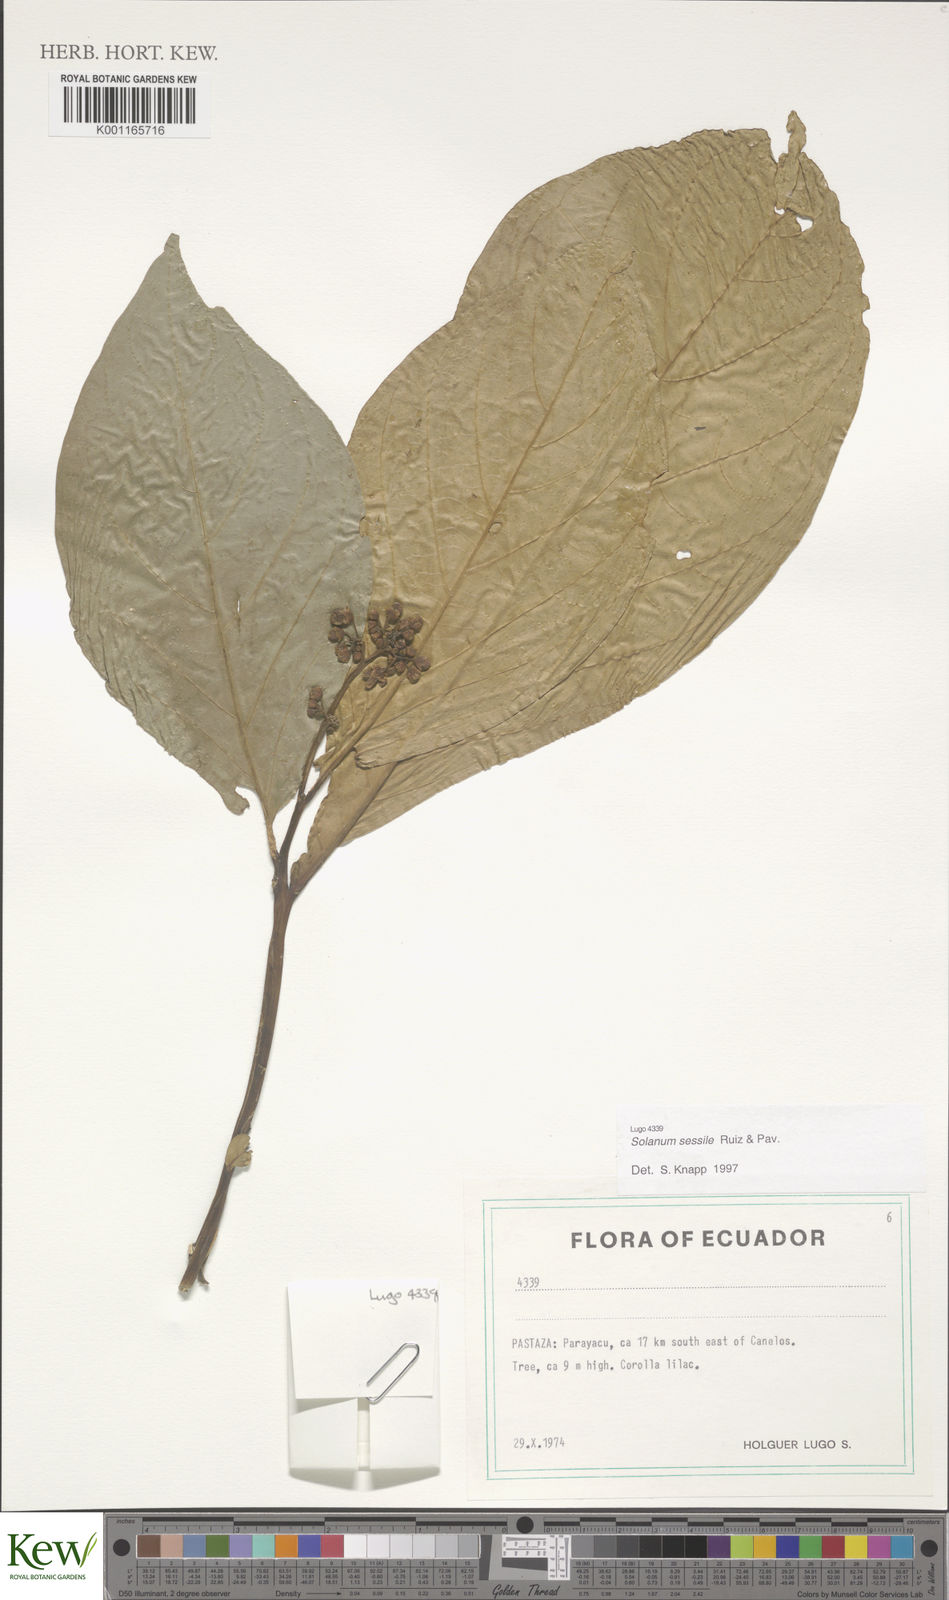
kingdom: Plantae
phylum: Tracheophyta
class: Magnoliopsida
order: Solanales
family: Solanaceae
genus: Solanum
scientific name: Solanum sessile
